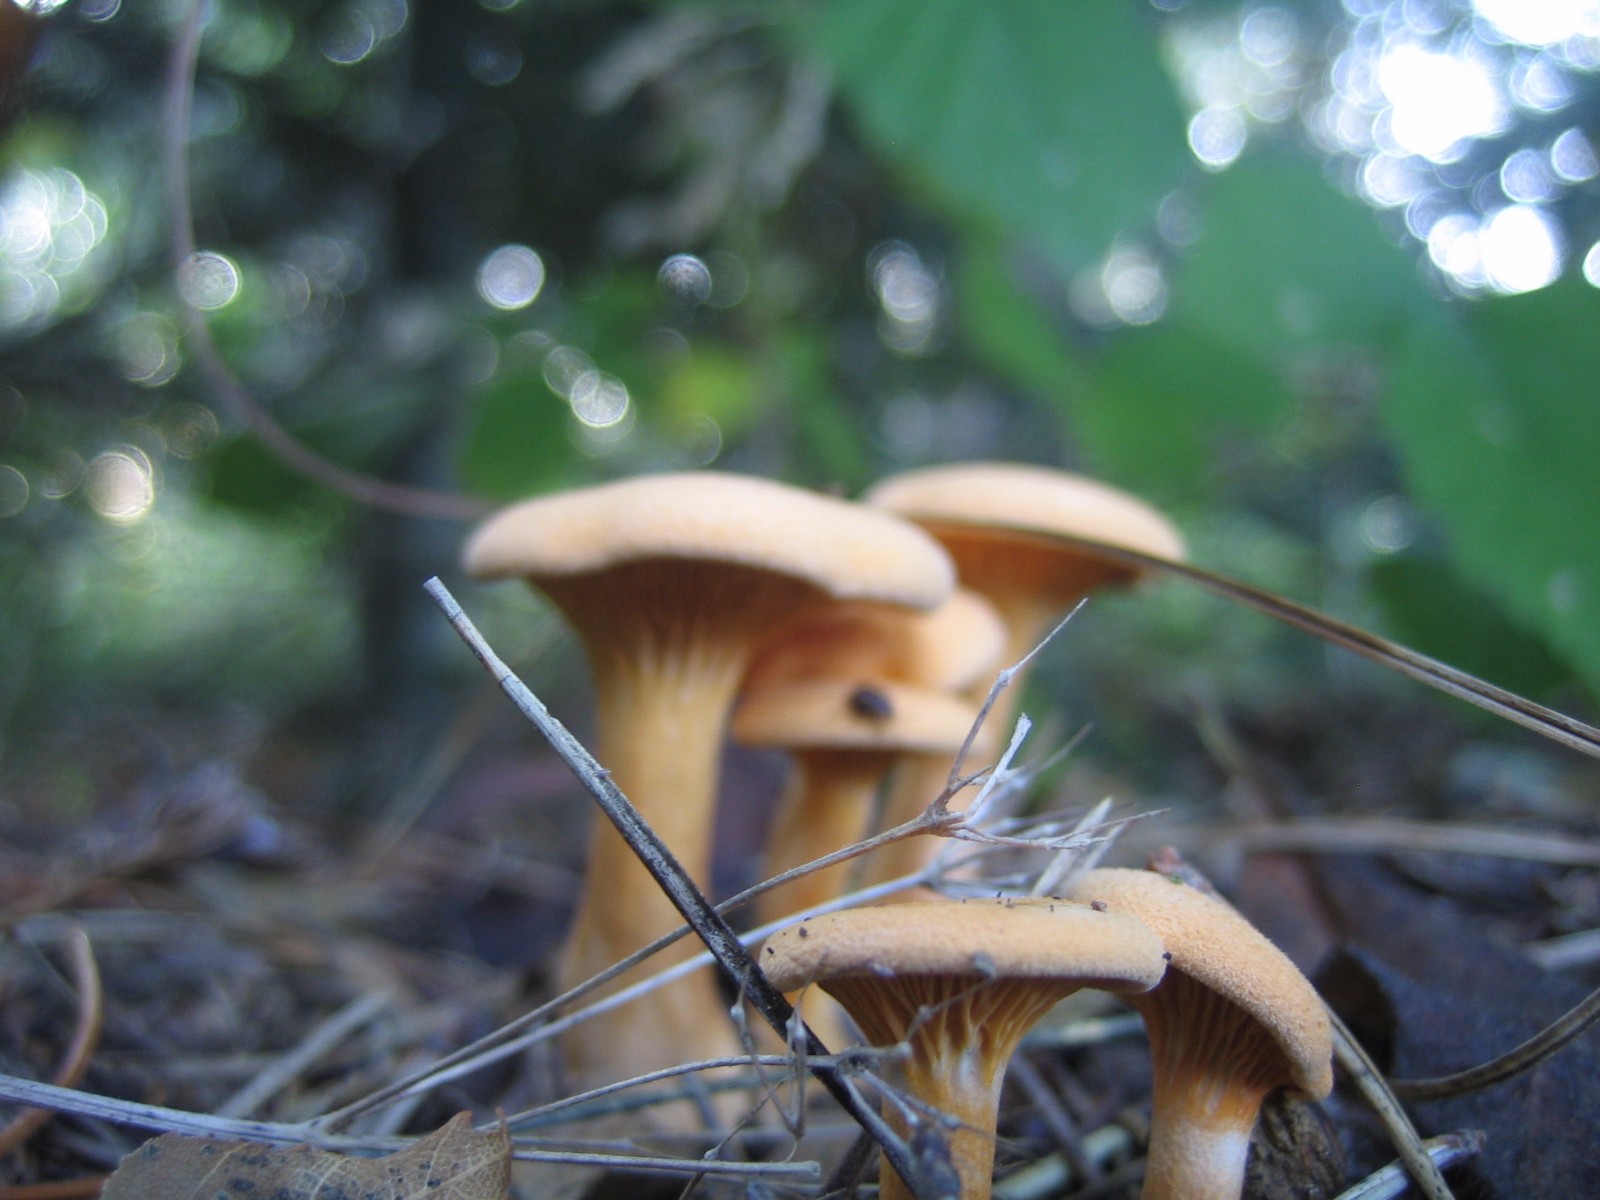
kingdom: Fungi
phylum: Basidiomycota
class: Agaricomycetes
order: Boletales
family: Hygrophoropsidaceae
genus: Hygrophoropsis
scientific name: Hygrophoropsis aurantiaca
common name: almindelig orangekantarel
